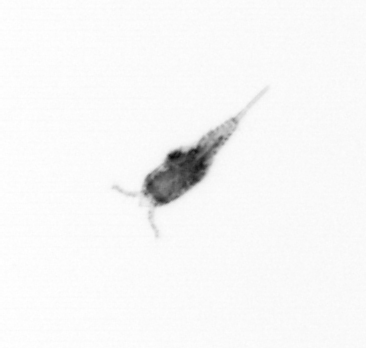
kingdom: Animalia
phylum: Arthropoda
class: Copepoda
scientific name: Copepoda
